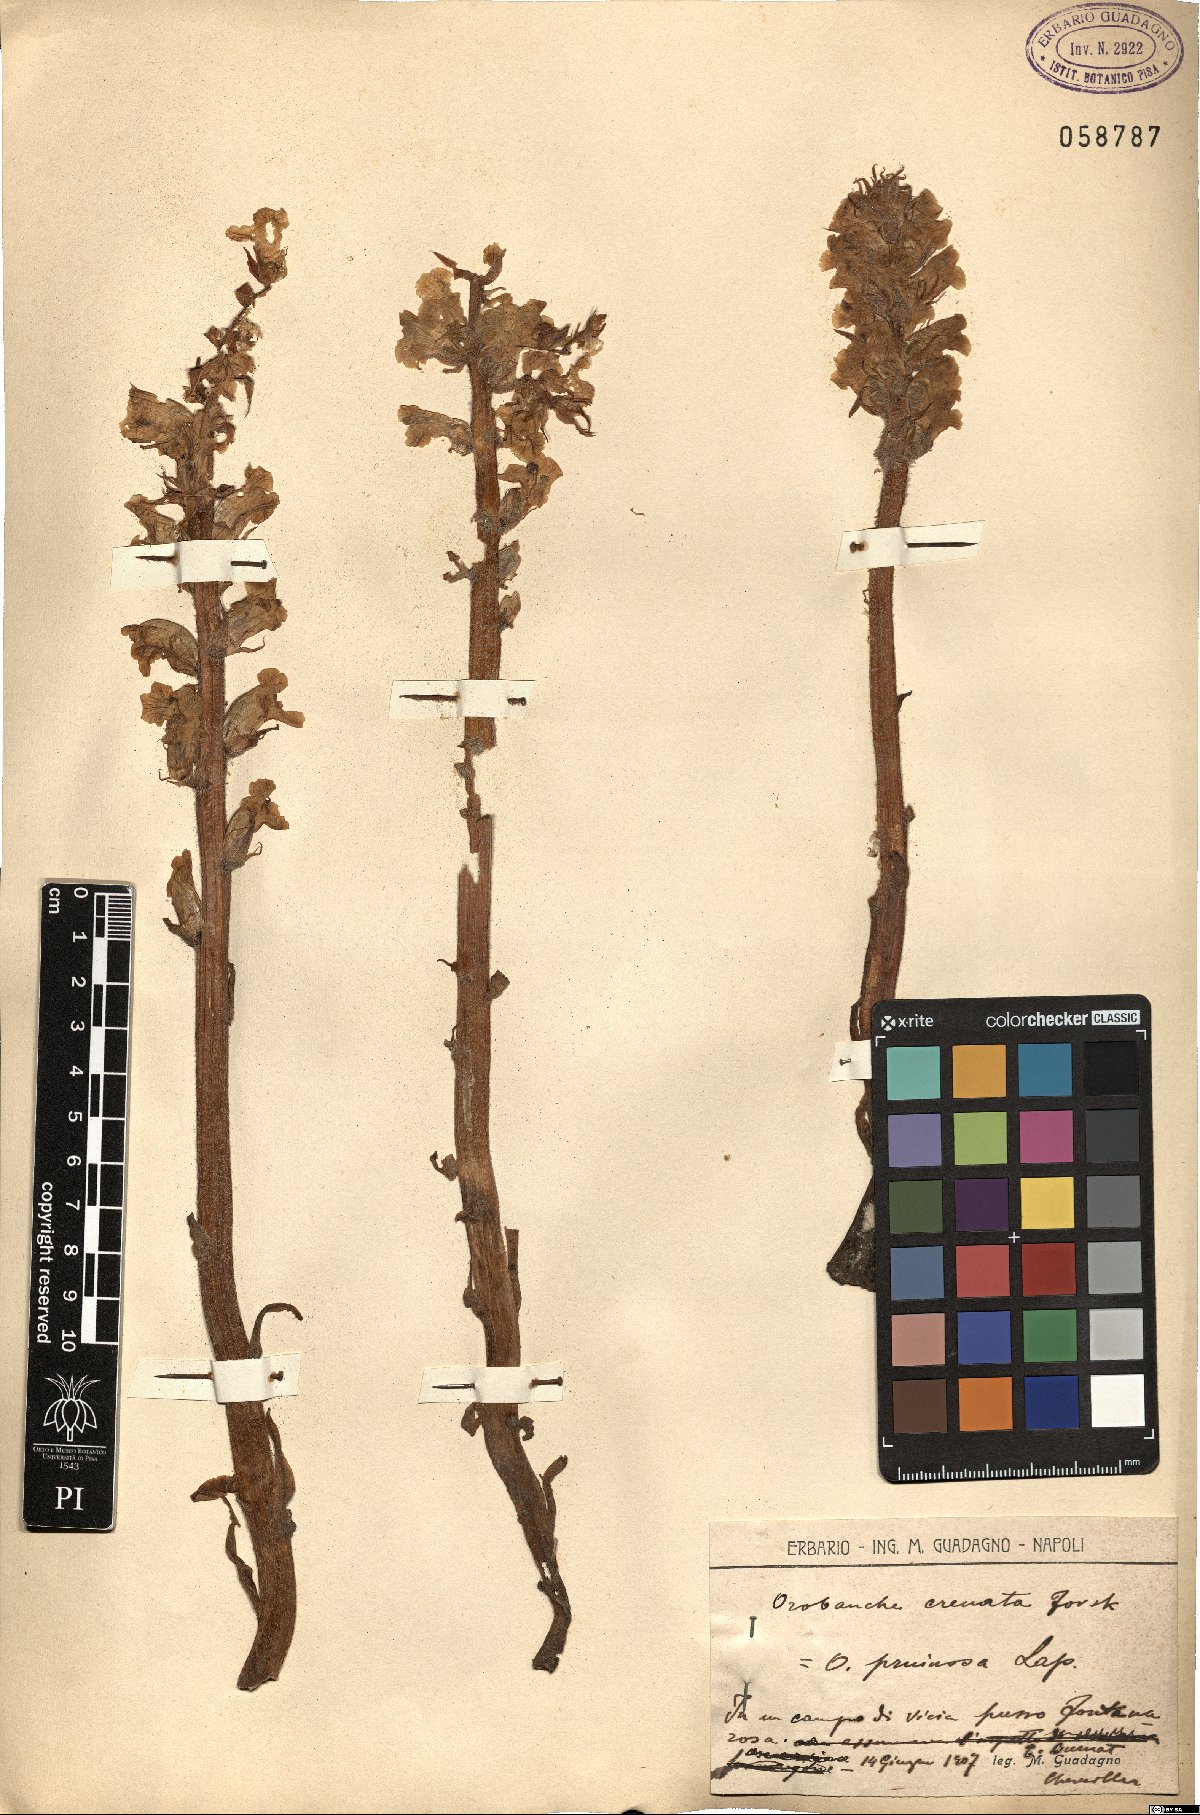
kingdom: Plantae
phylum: Tracheophyta
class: Magnoliopsida
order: Lamiales
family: Orobanchaceae
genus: Orobanche
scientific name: Orobanche crenata
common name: Bean broomrape
